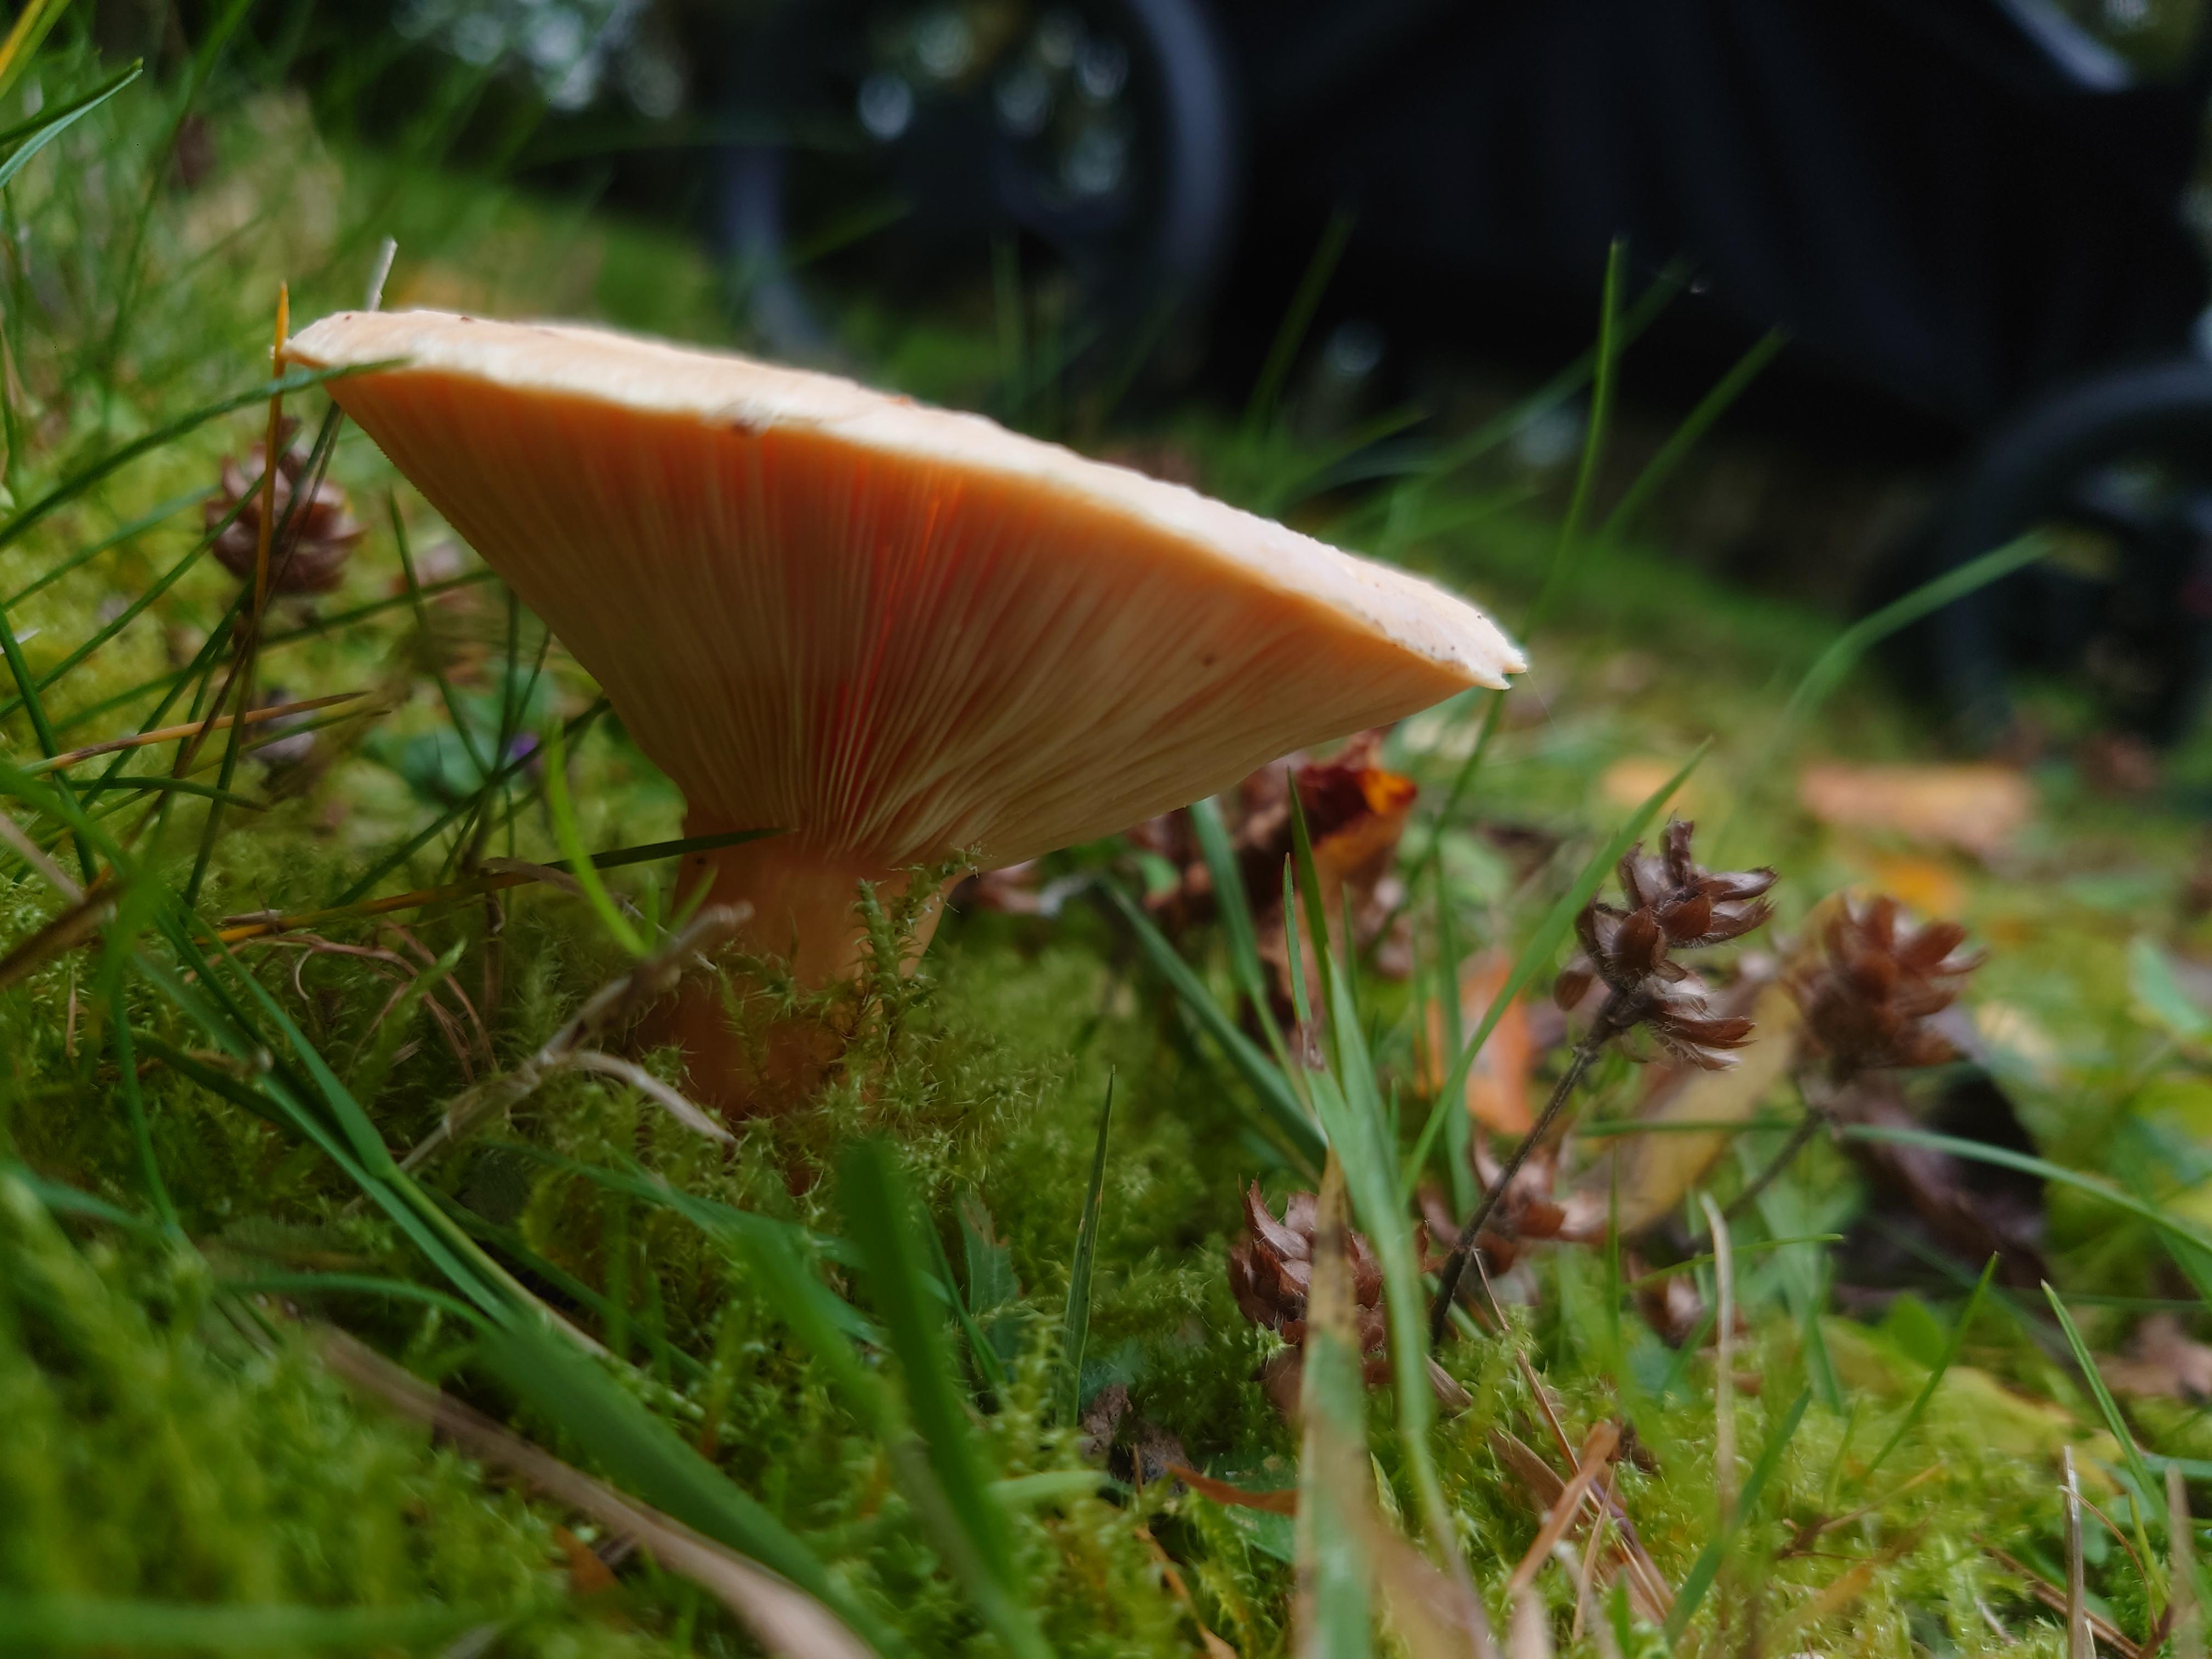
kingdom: Fungi
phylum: Basidiomycota
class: Agaricomycetes
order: Russulales
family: Russulaceae
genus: Lactarius
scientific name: Lactarius pubescens
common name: dunet mælkehat
